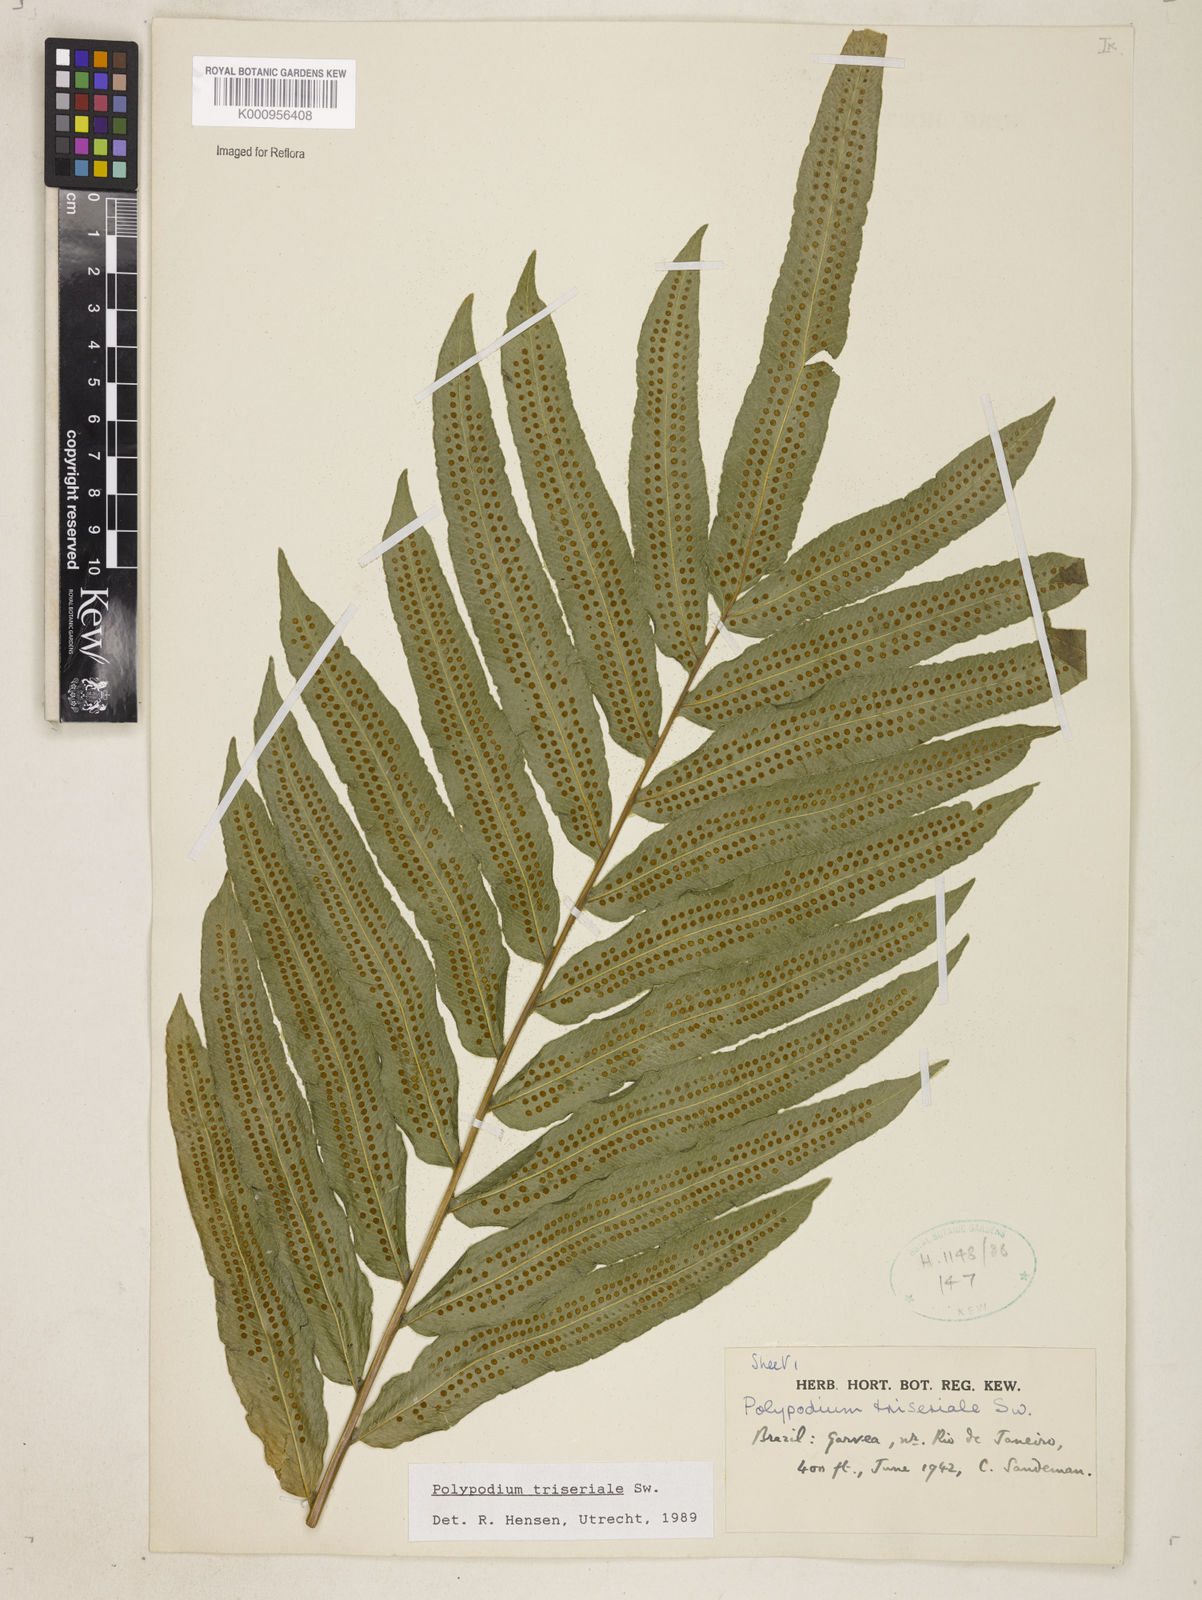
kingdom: Plantae
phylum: Tracheophyta
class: Polypodiopsida
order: Polypodiales
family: Polypodiaceae
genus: Serpocaulon
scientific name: Serpocaulon triseriale
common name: Angle-vein fern
